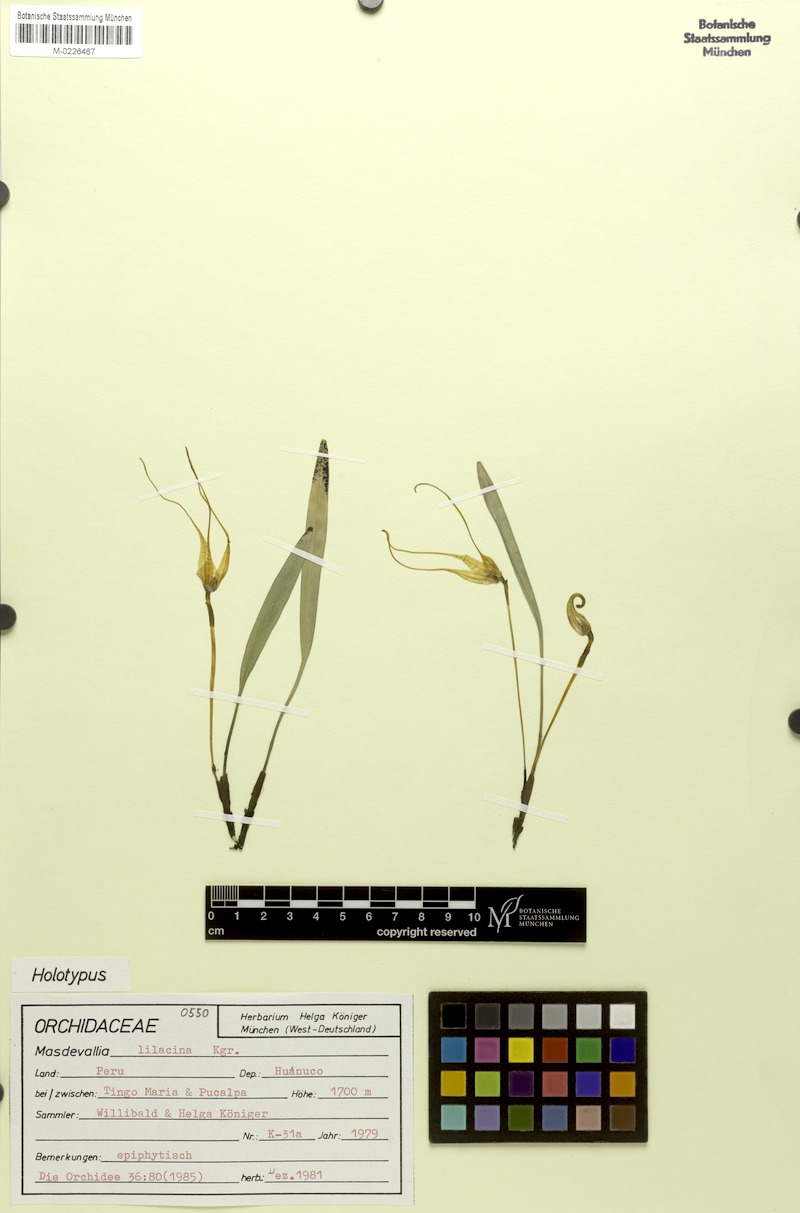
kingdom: Plantae
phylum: Tracheophyta
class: Liliopsida
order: Asparagales
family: Orchidaceae
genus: Masdevallia
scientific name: Masdevallia lilacina
